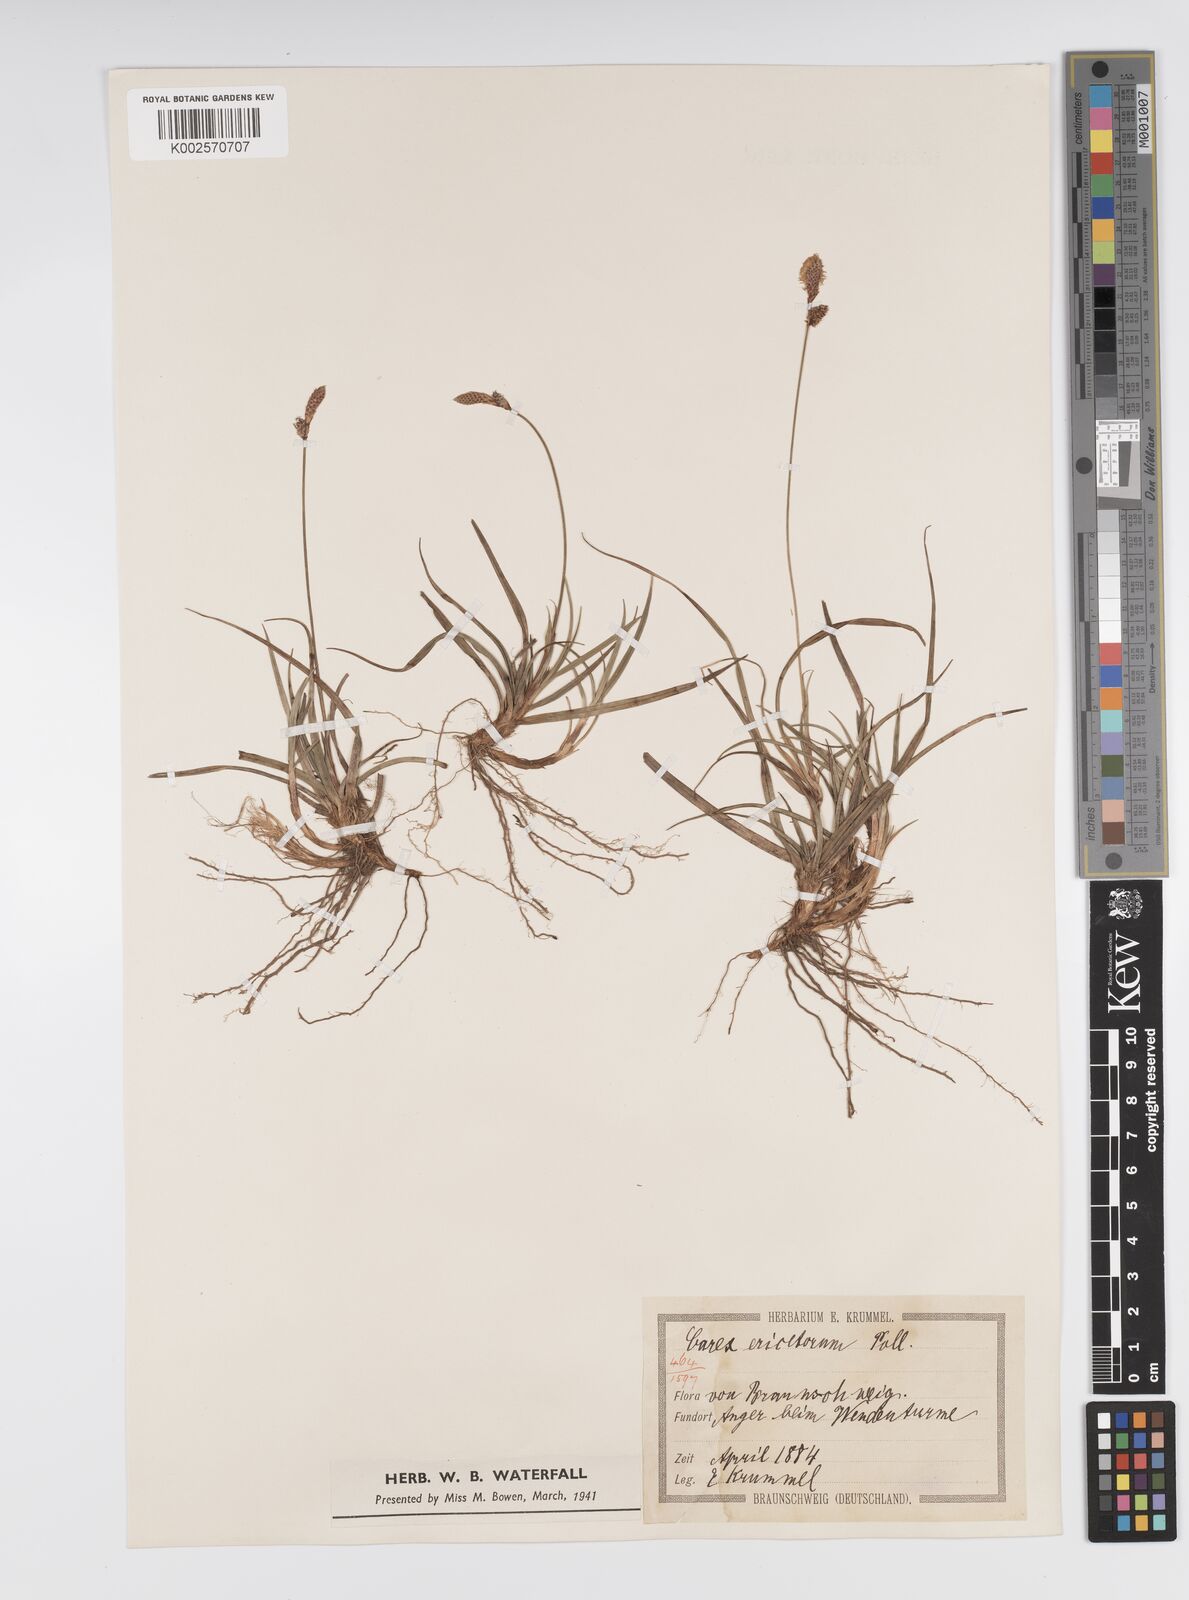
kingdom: Plantae
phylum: Tracheophyta
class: Liliopsida
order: Poales
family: Cyperaceae
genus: Carex
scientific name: Carex ericetorum
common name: Rare spring-sedge
